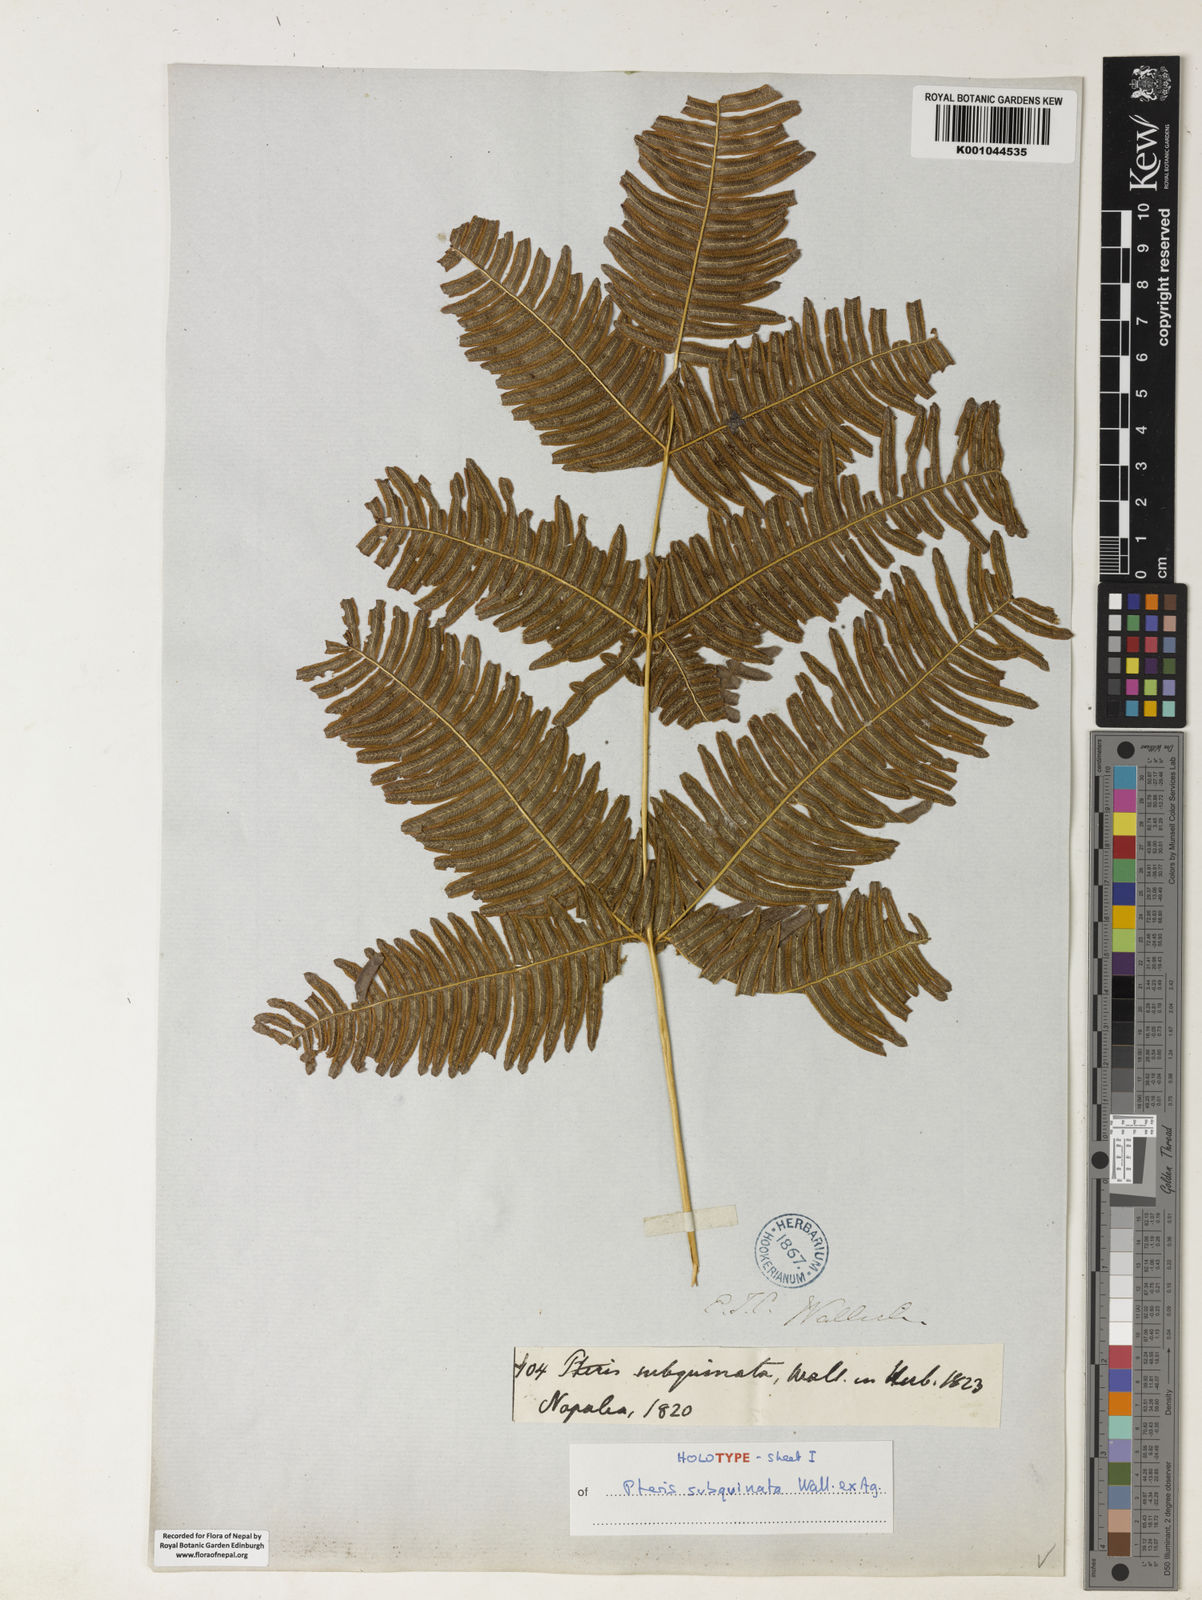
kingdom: Plantae
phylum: Tracheophyta
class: Polypodiopsida
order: Polypodiales
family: Pteridaceae
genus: Pteris
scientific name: Pteris subquinata
